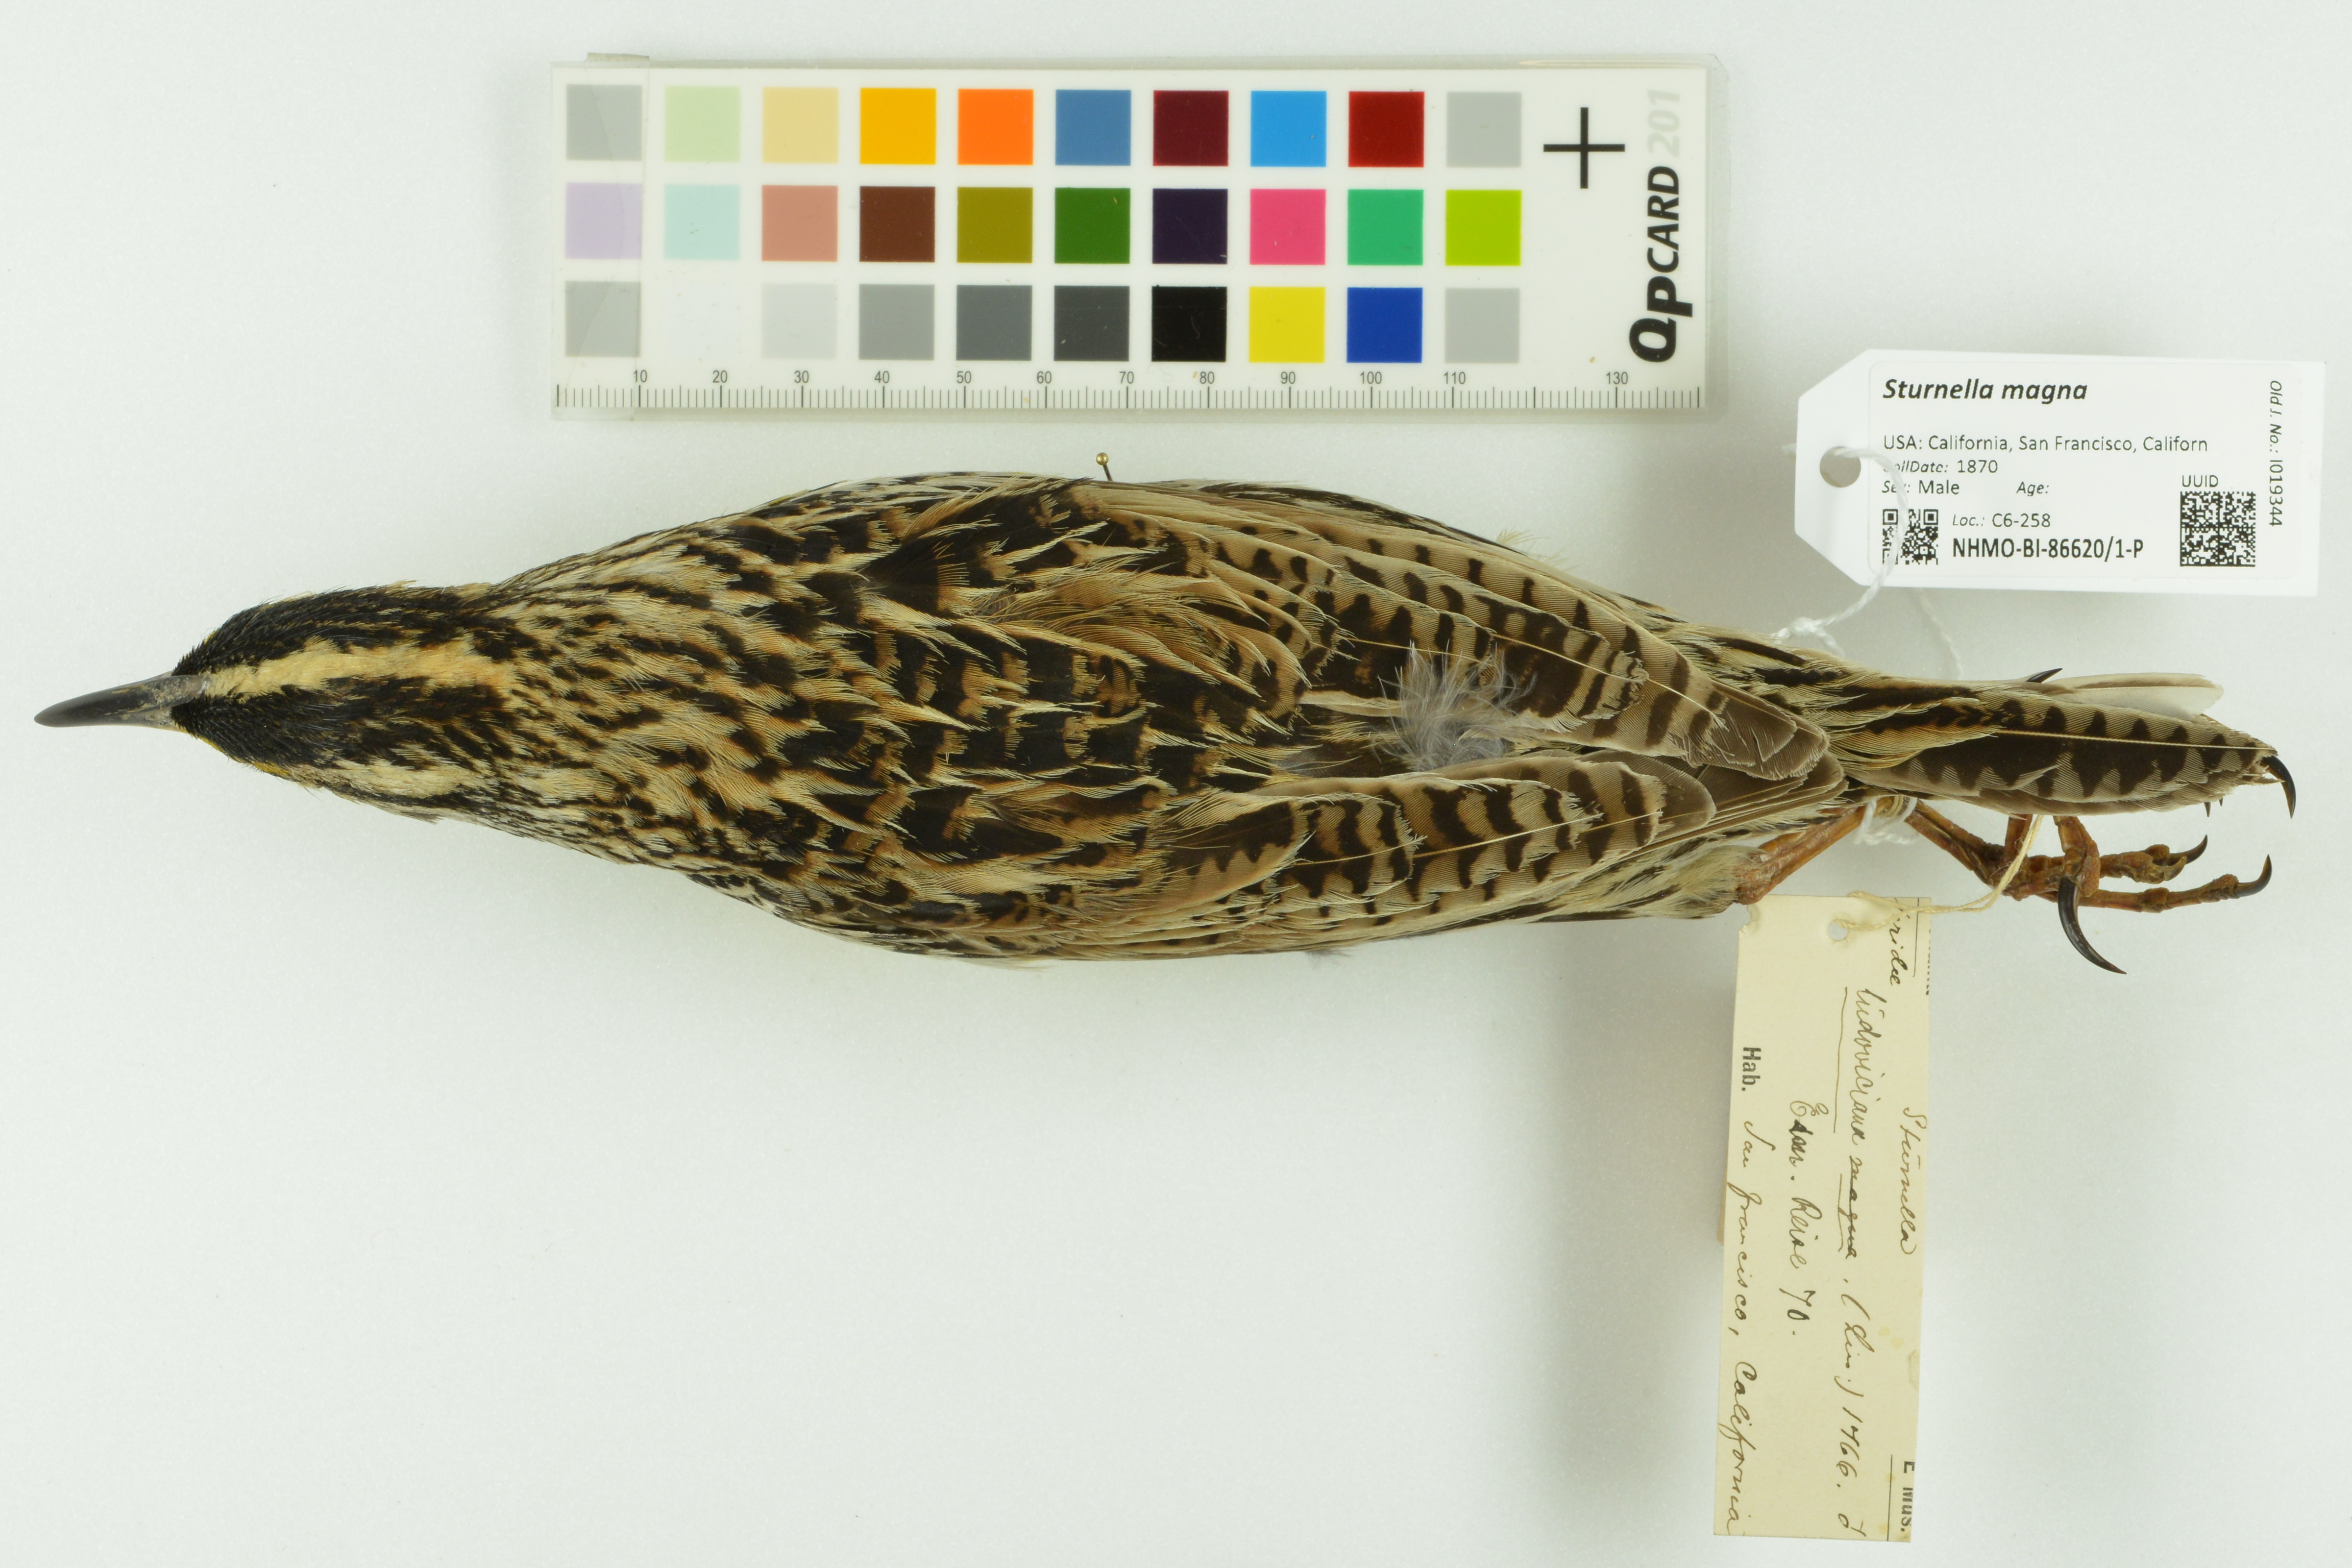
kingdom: Animalia
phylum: Chordata
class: Aves
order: Passeriformes
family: Icteridae
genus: Sturnella
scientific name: Sturnella magna
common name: Eastern meadowlark
